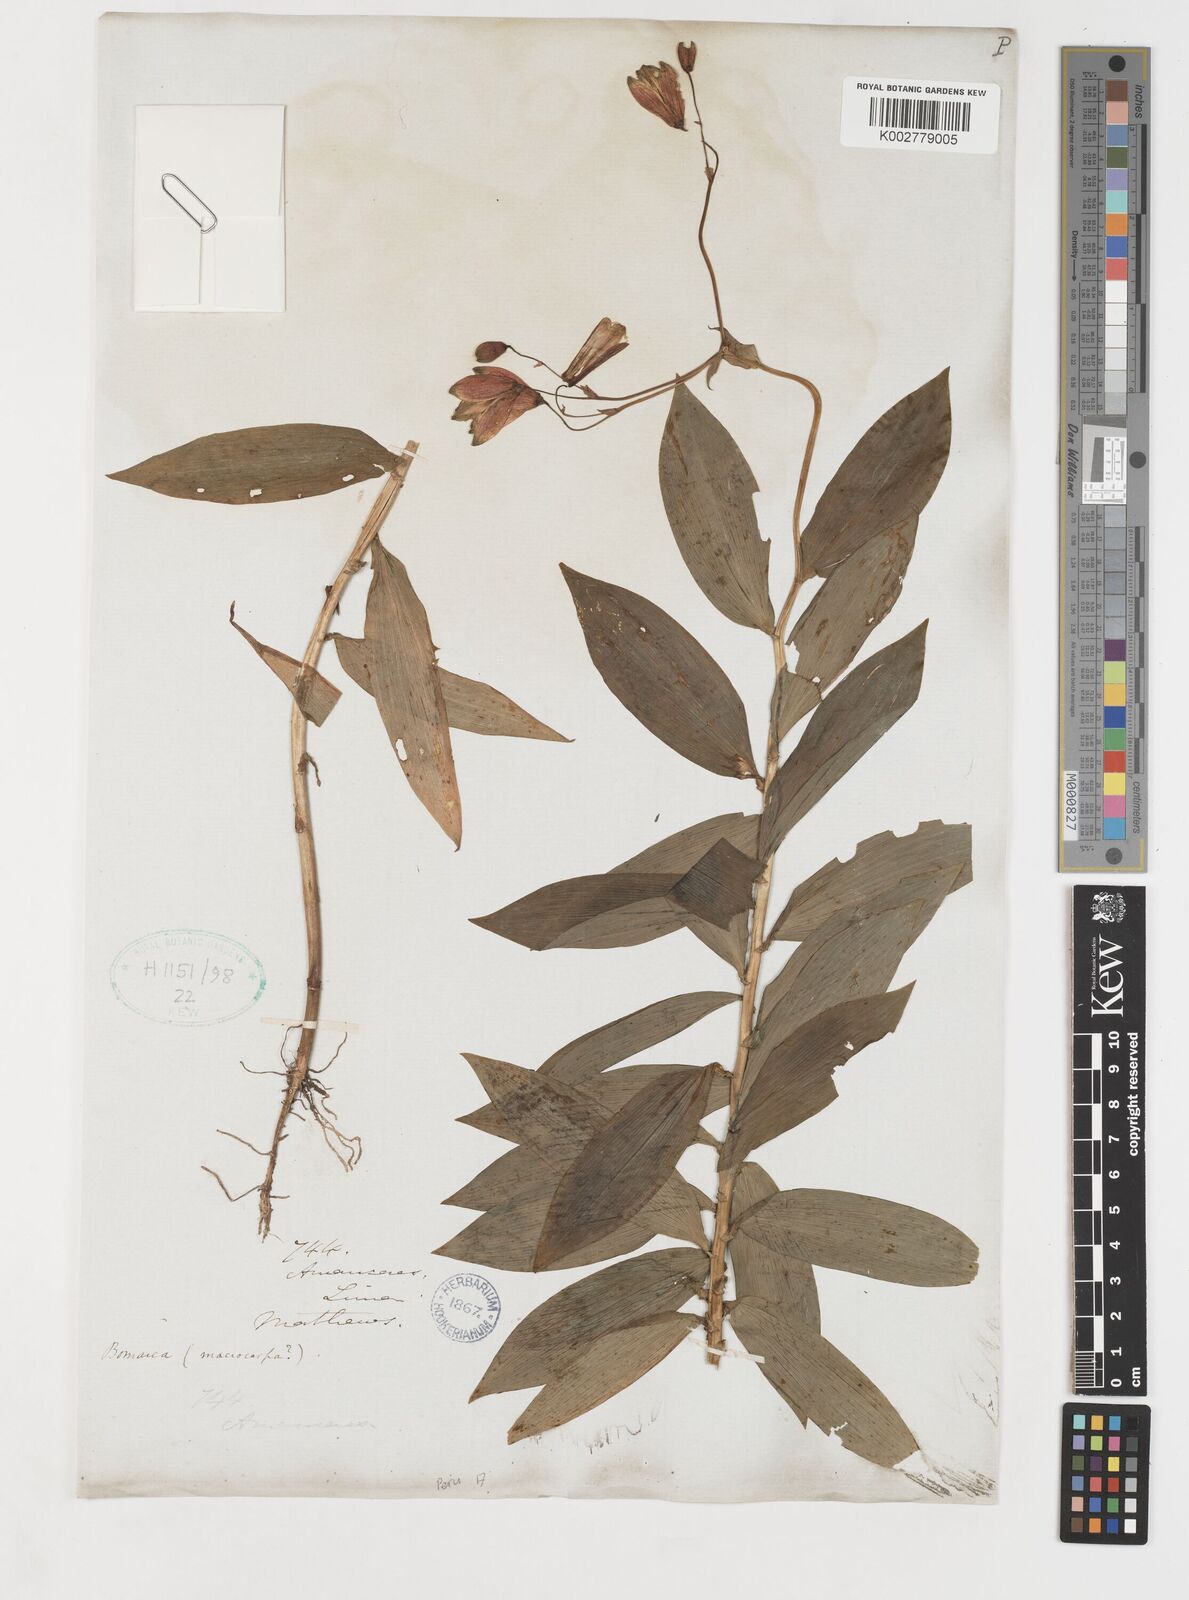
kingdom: Plantae
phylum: Tracheophyta
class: Liliopsida
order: Liliales
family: Alstroemeriaceae
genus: Bomarea
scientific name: Bomarea ovata
